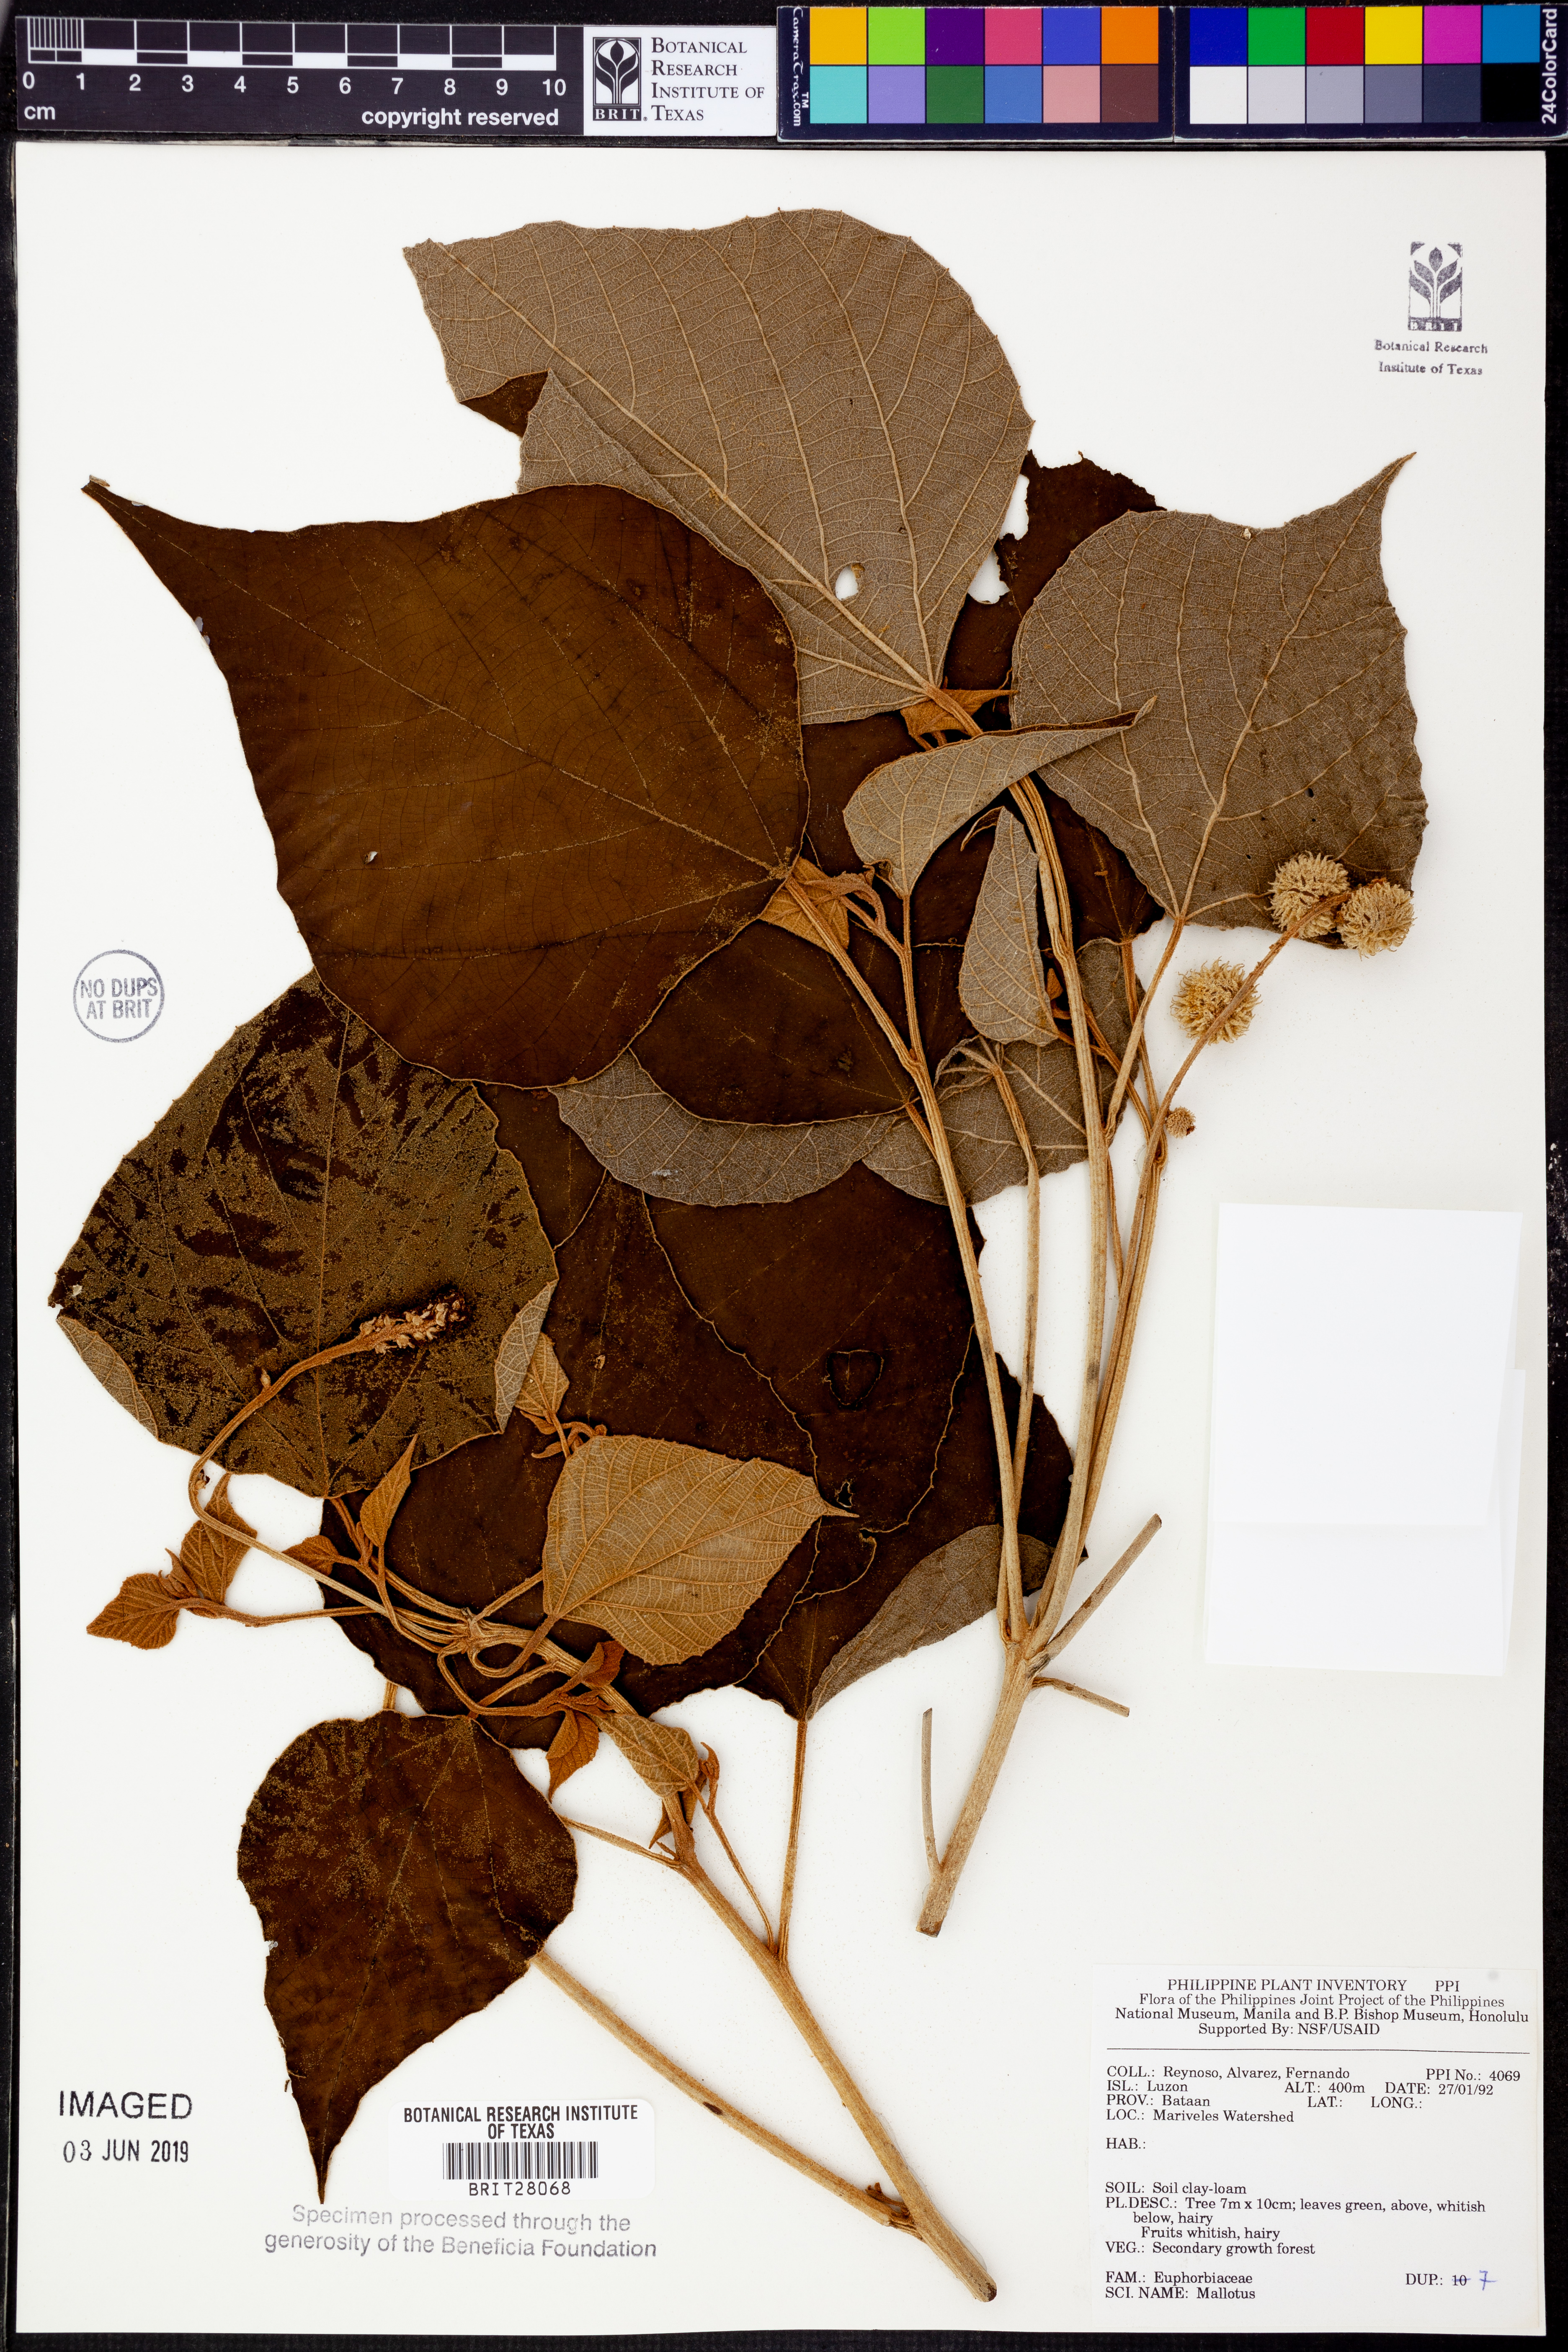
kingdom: Plantae
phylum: Tracheophyta
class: Magnoliopsida
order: Malpighiales
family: Euphorbiaceae
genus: Mallotus
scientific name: Mallotus
